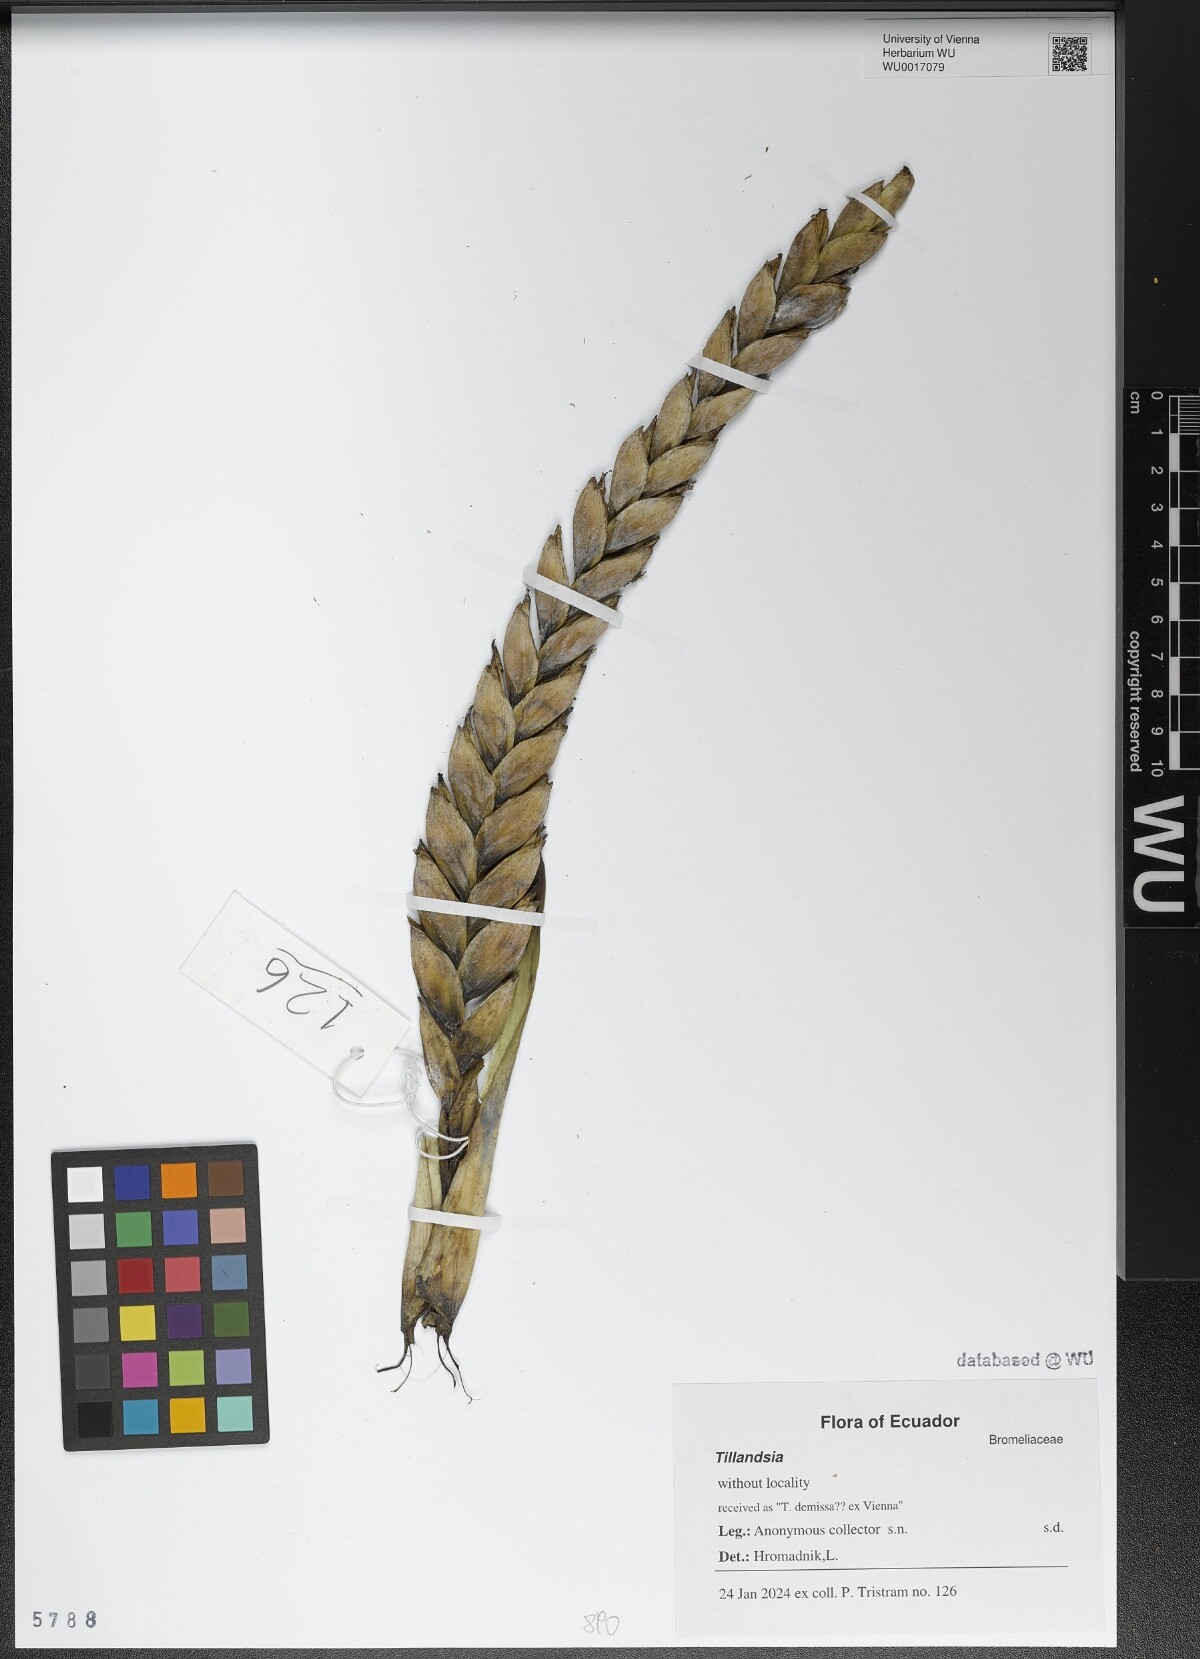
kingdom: Plantae
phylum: Tracheophyta
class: Liliopsida
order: Poales
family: Bromeliaceae
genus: Tillandsia
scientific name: Tillandsia
